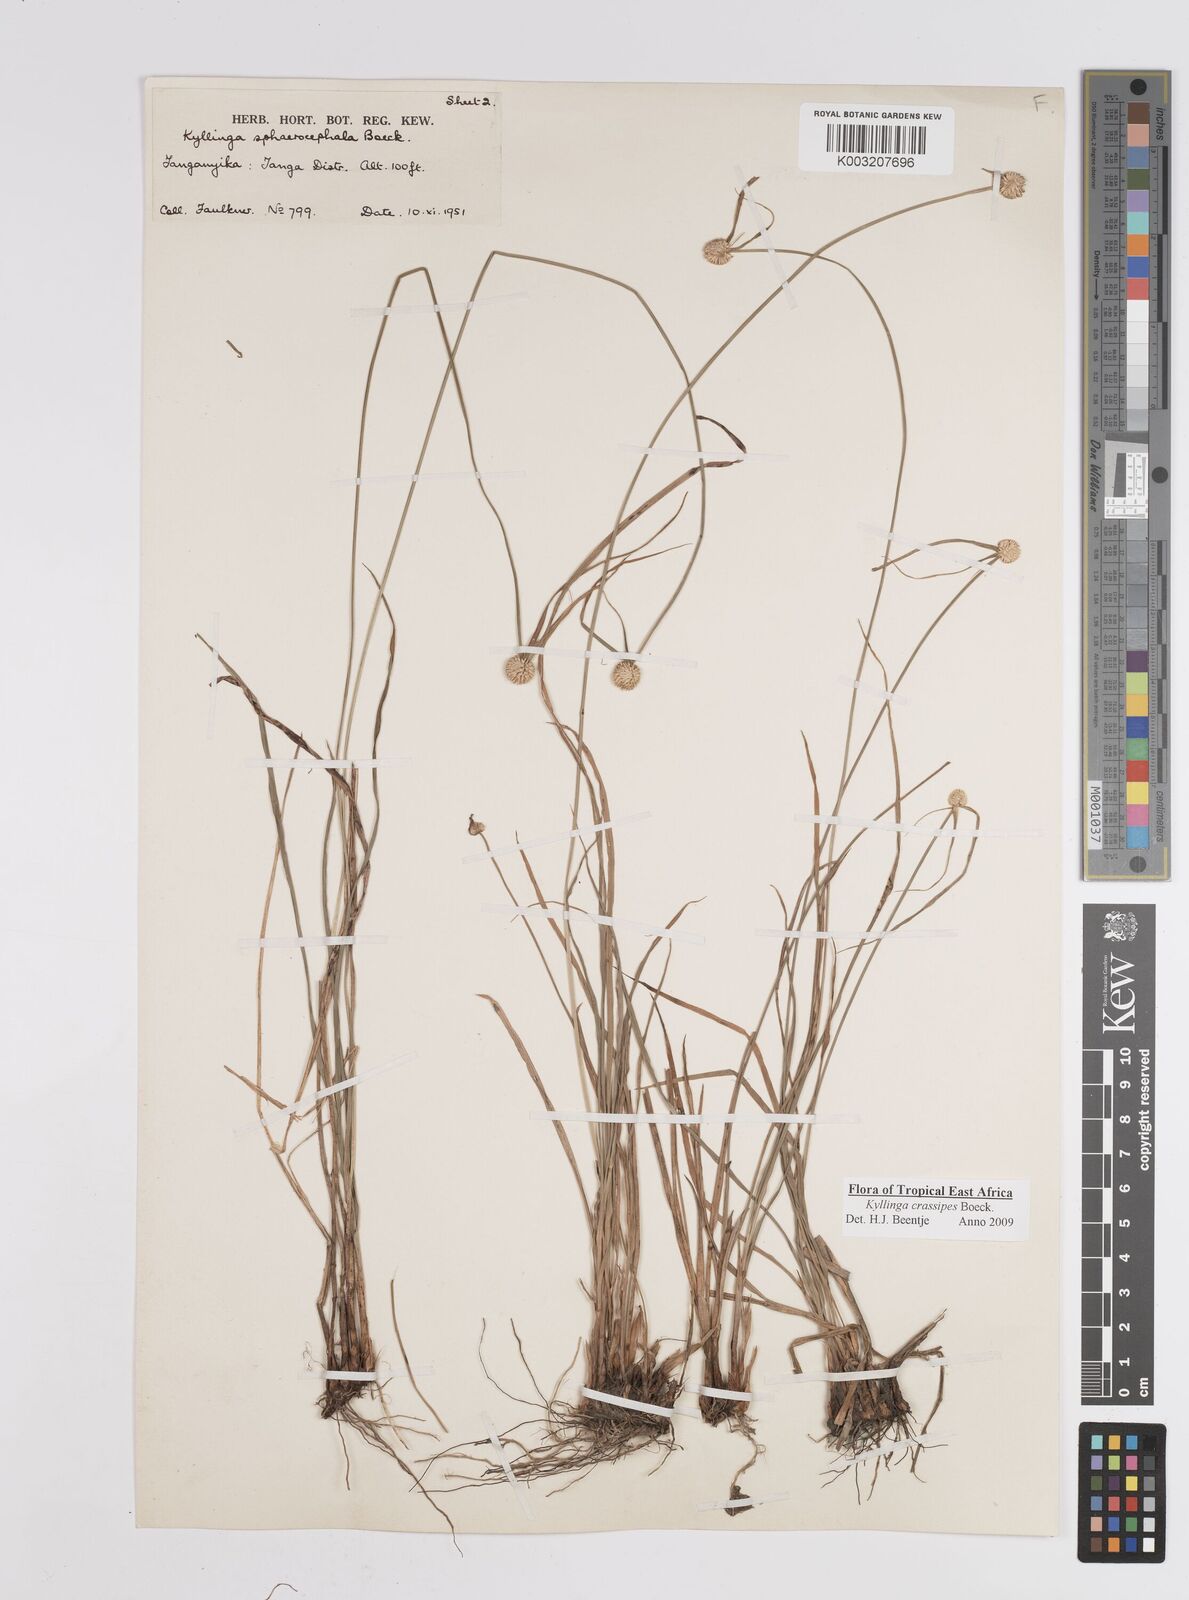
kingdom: Plantae
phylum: Tracheophyta
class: Liliopsida
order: Poales
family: Cyperaceae
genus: Cyperus
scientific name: Cyperus crassipes
